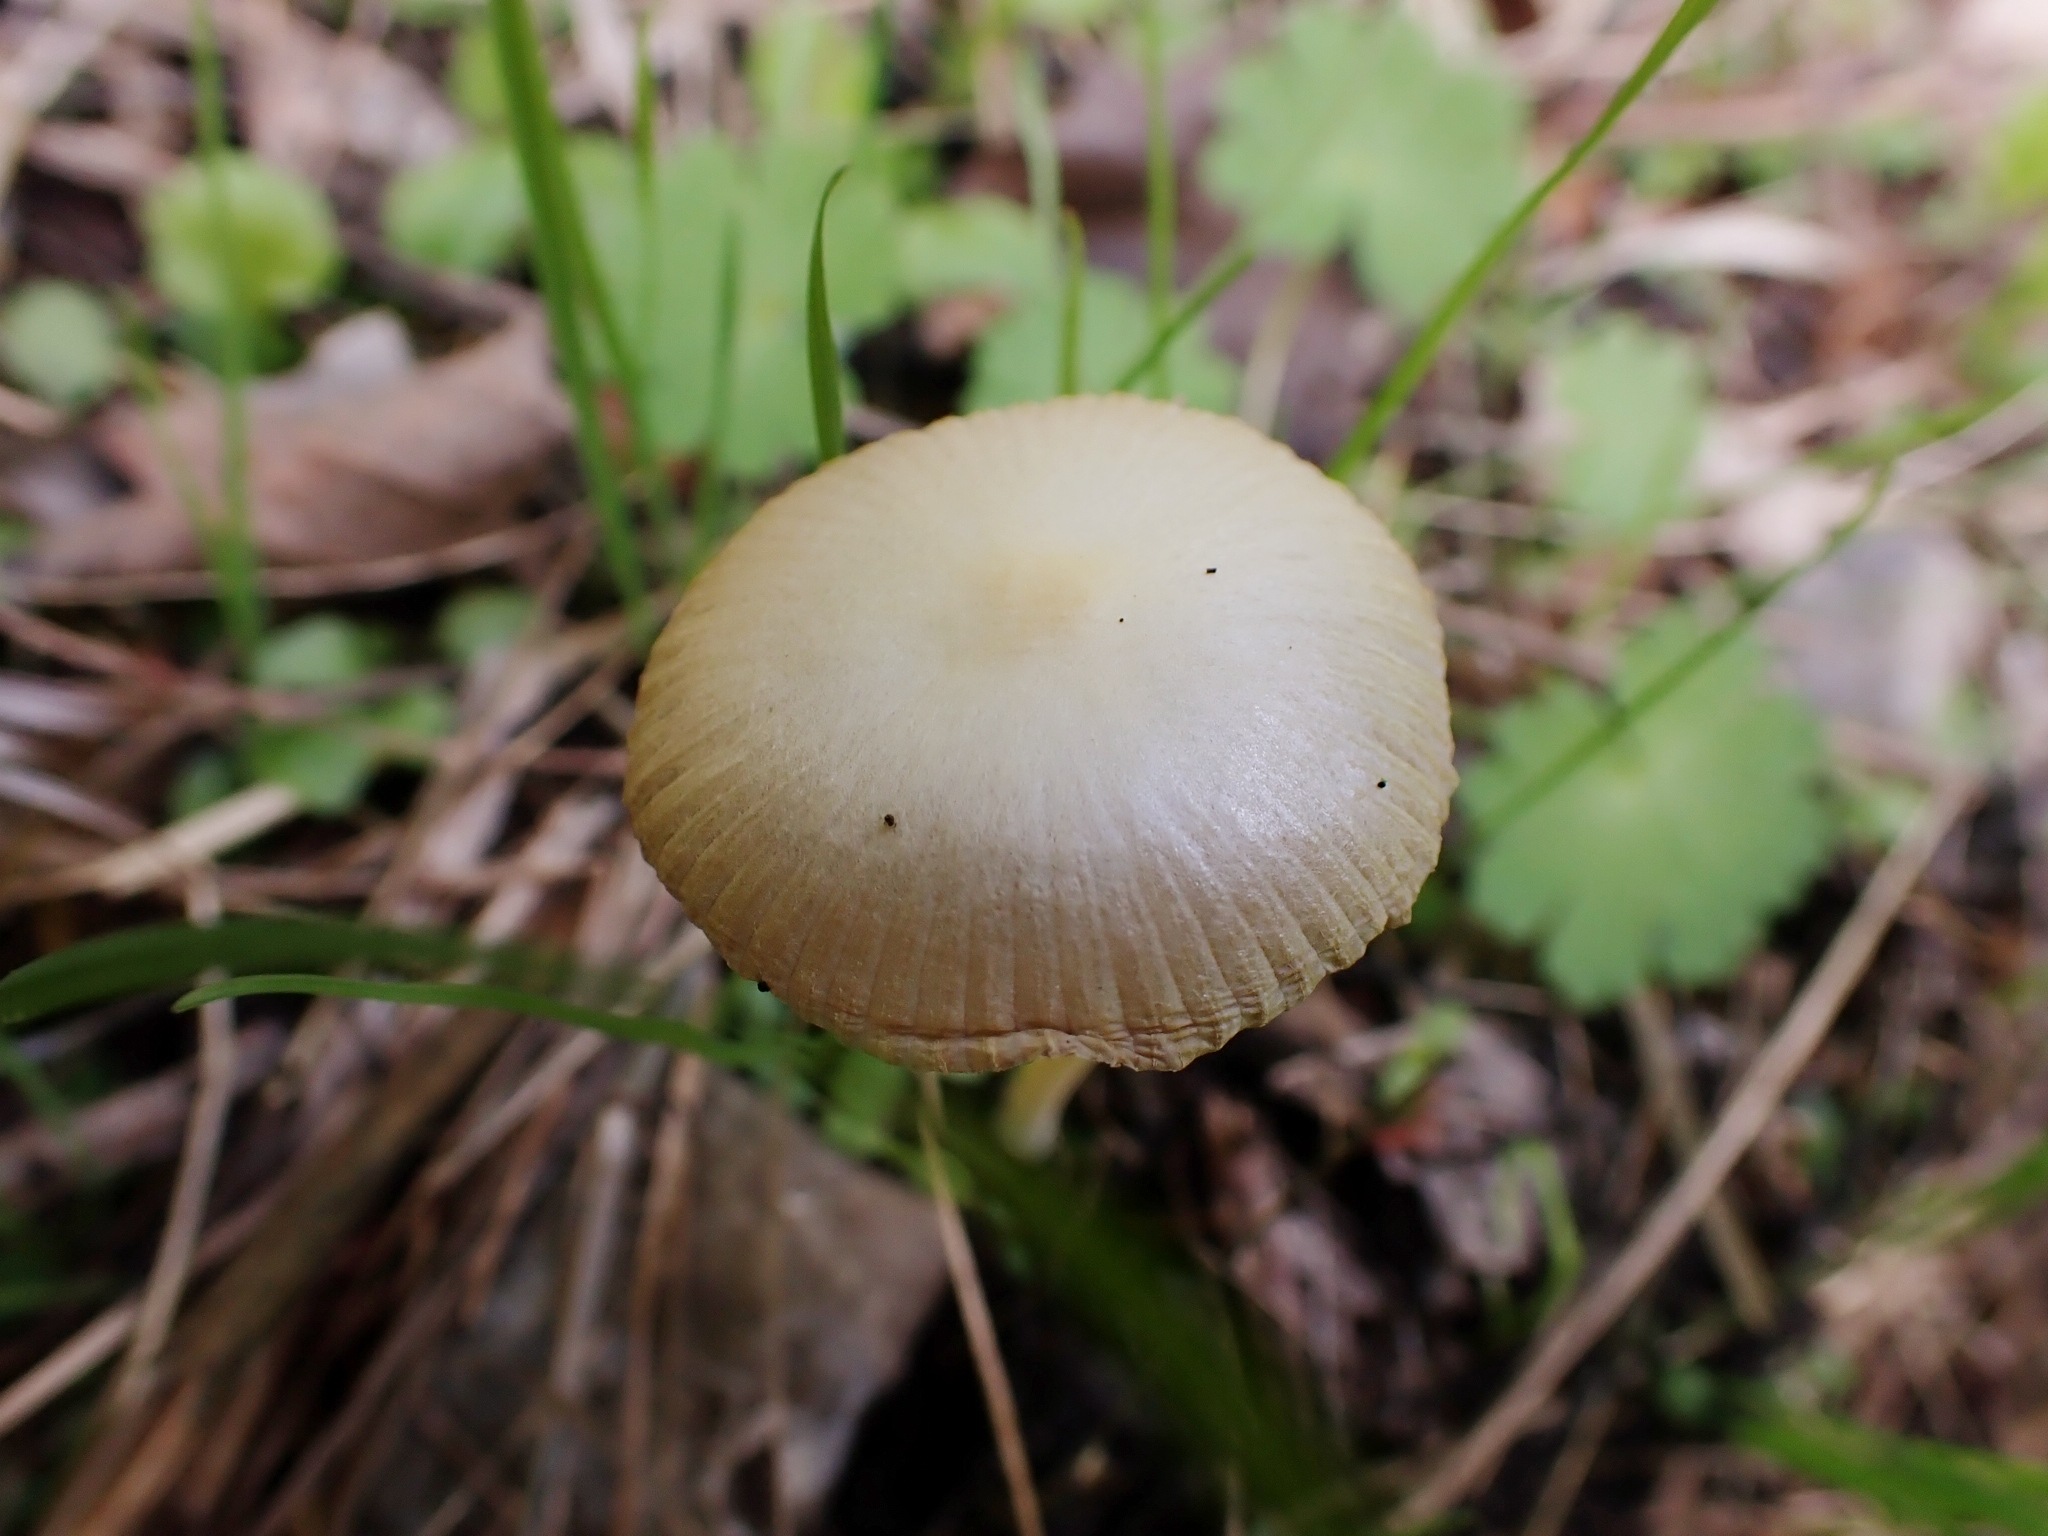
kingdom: Fungi
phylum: Basidiomycota
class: Agaricomycetes
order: Agaricales
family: Bolbitiaceae
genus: Bolbitius
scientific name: Bolbitius titubans
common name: almindelig gulhat
